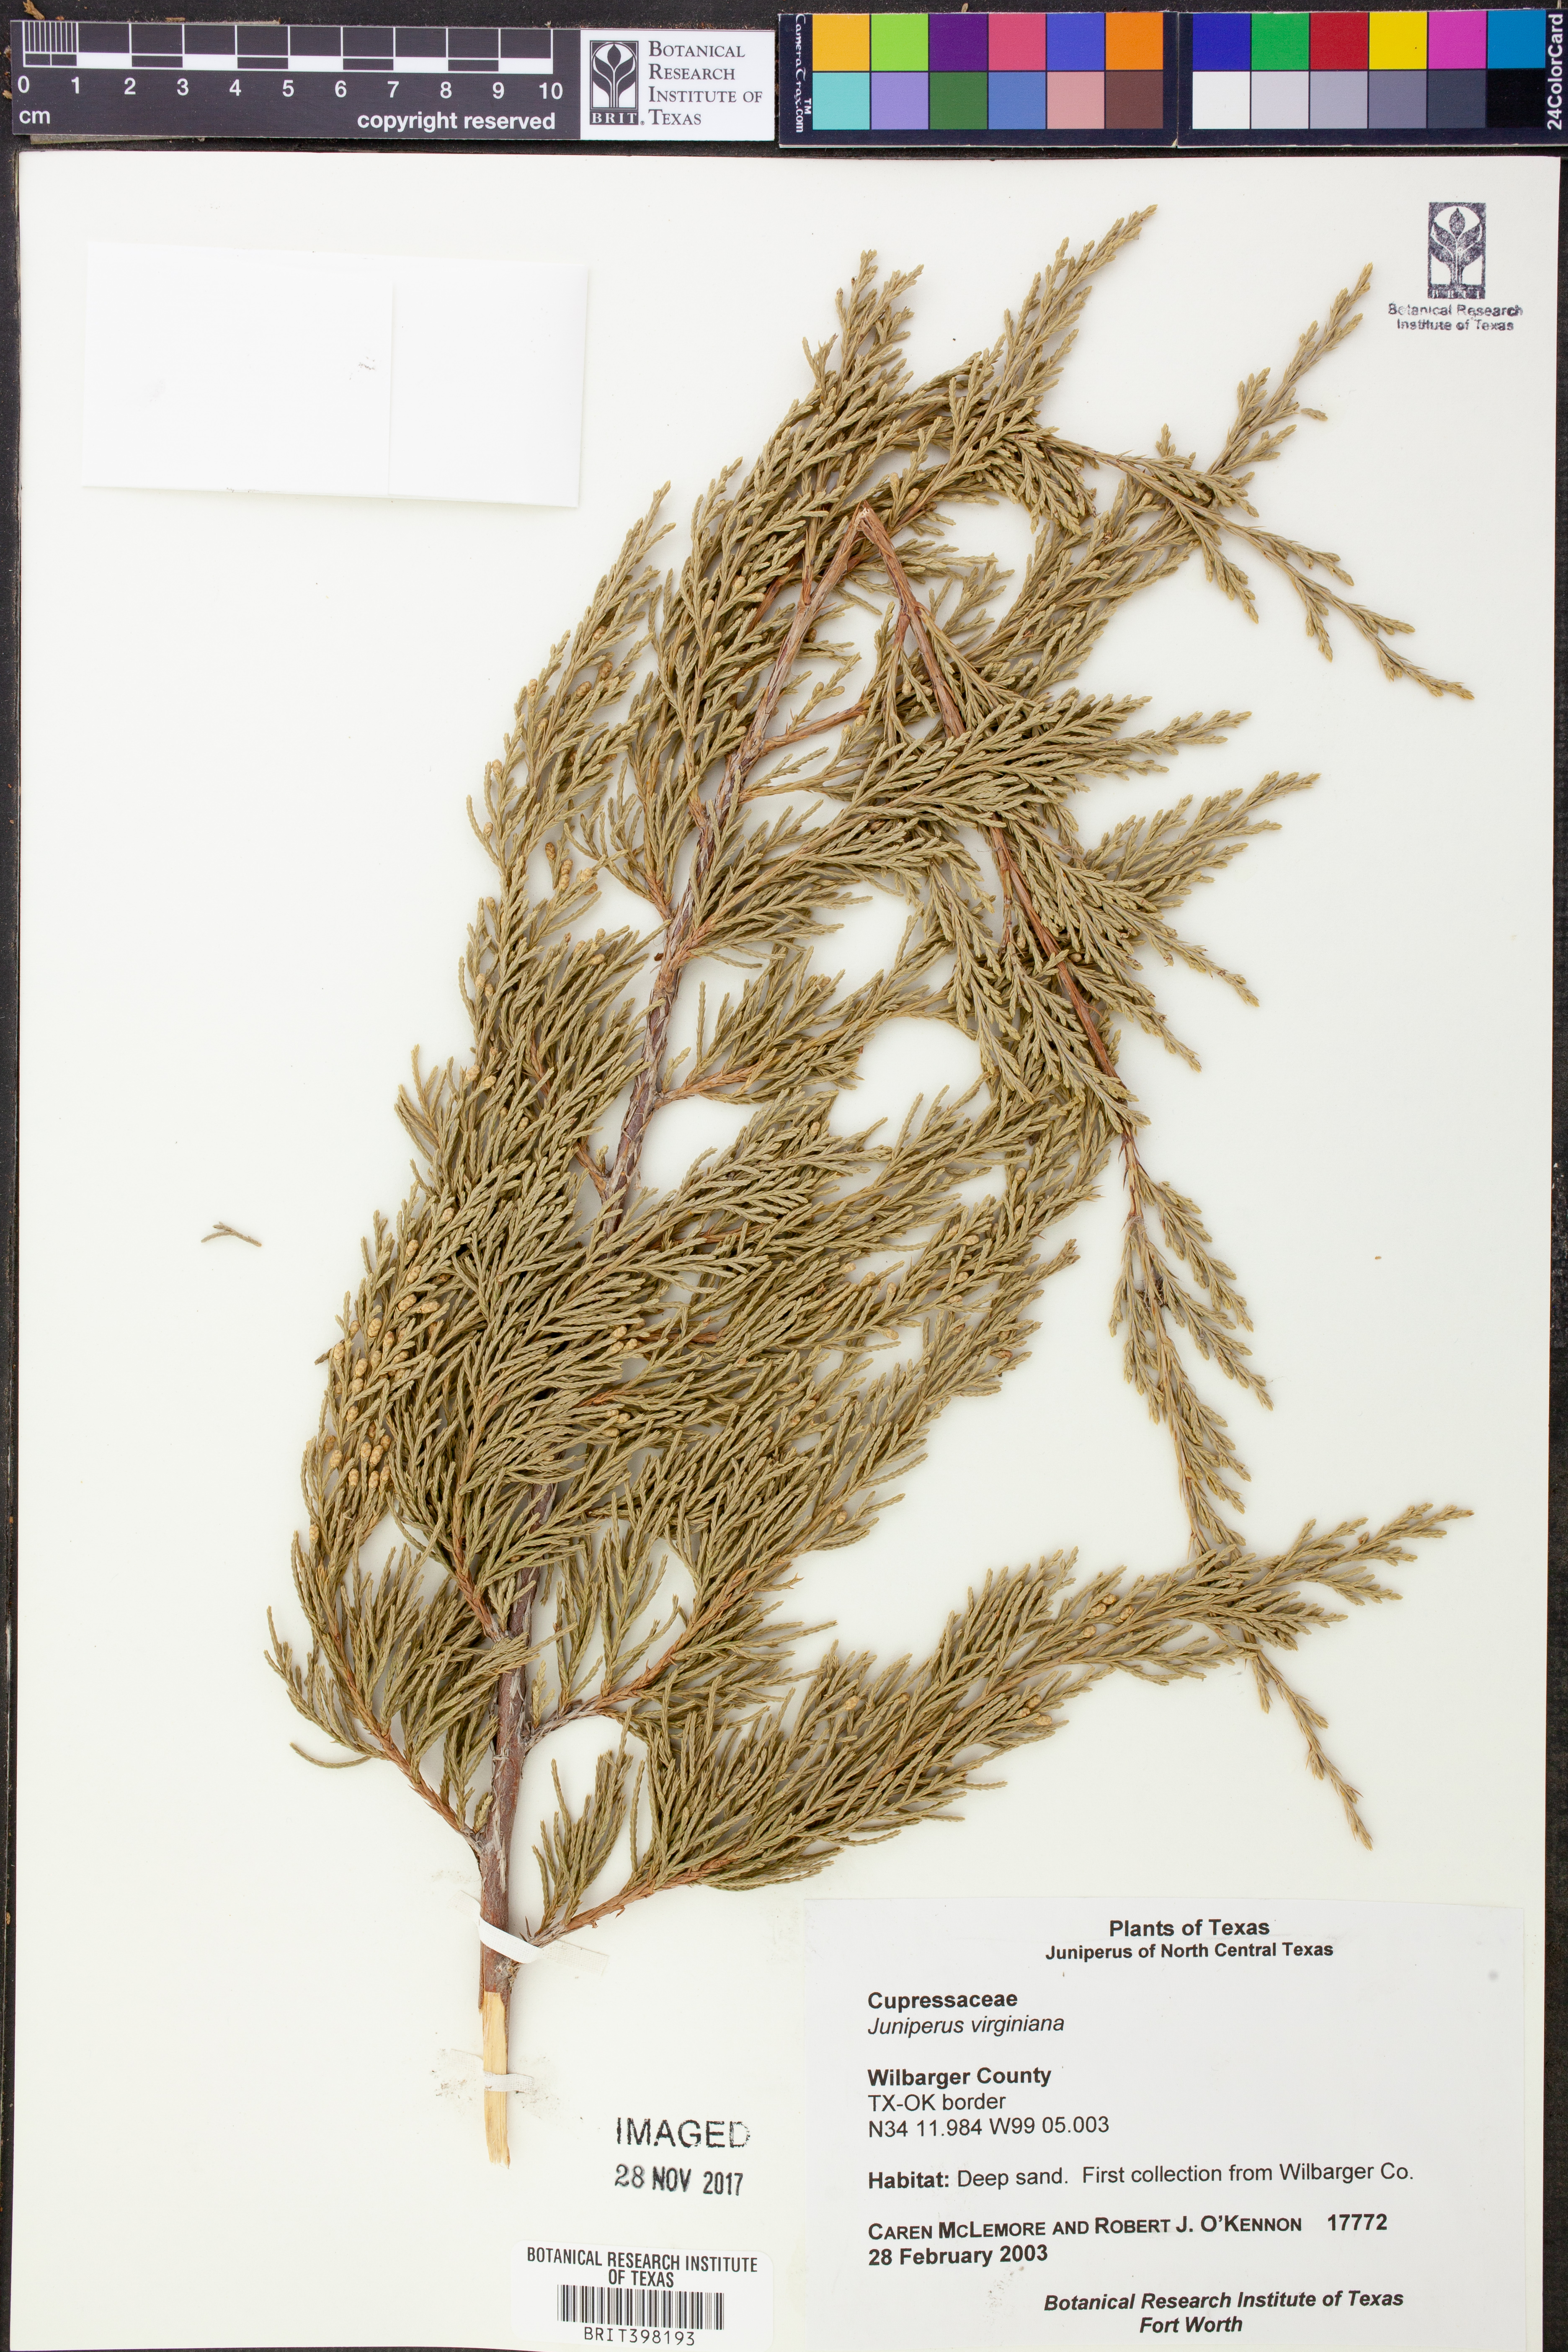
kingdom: Plantae
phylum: Tracheophyta
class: Pinopsida
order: Pinales
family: Cupressaceae
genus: Juniperus
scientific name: Juniperus virginiana
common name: Red juniper
